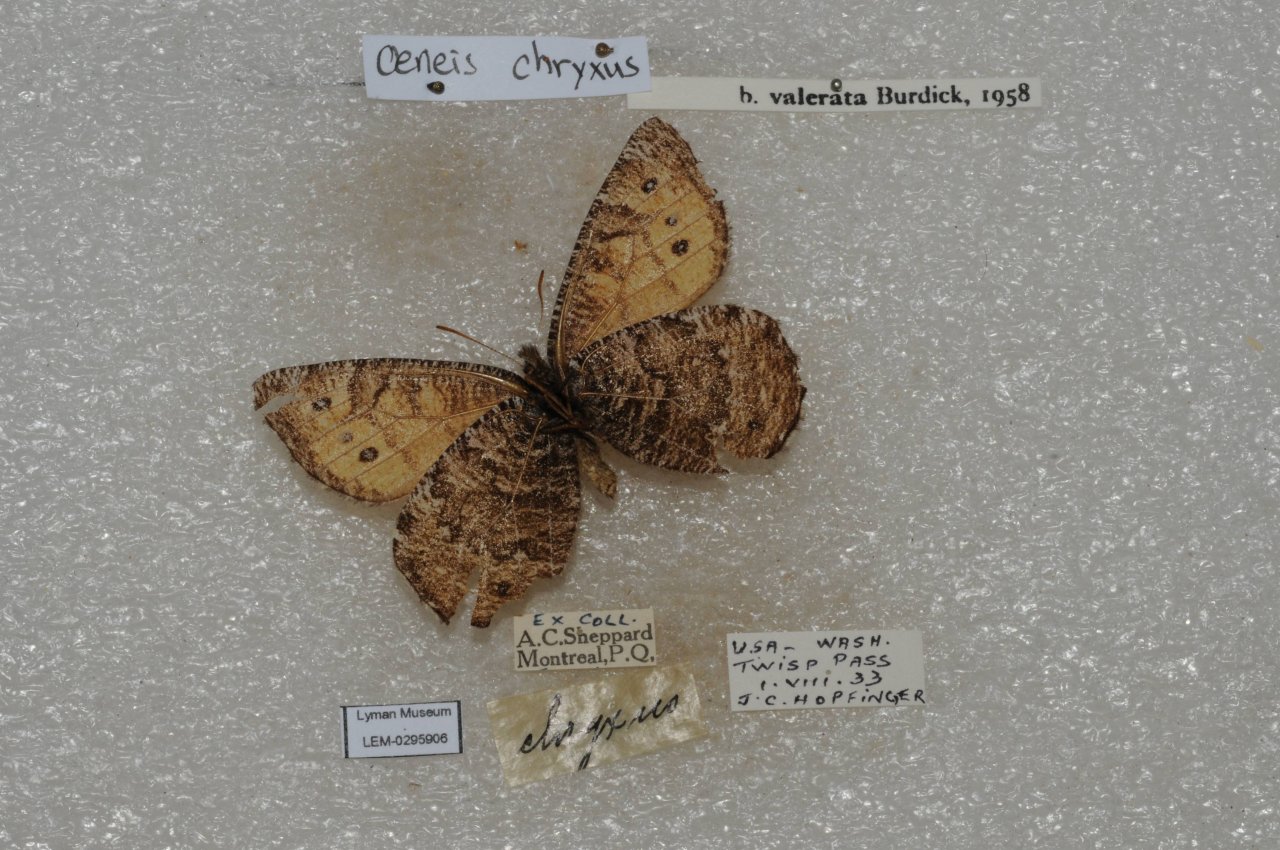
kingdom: Animalia
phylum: Arthropoda
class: Insecta
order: Lepidoptera
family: Nymphalidae
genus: Oeneis
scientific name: Oeneis chryxus
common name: Chryxus Arctic
